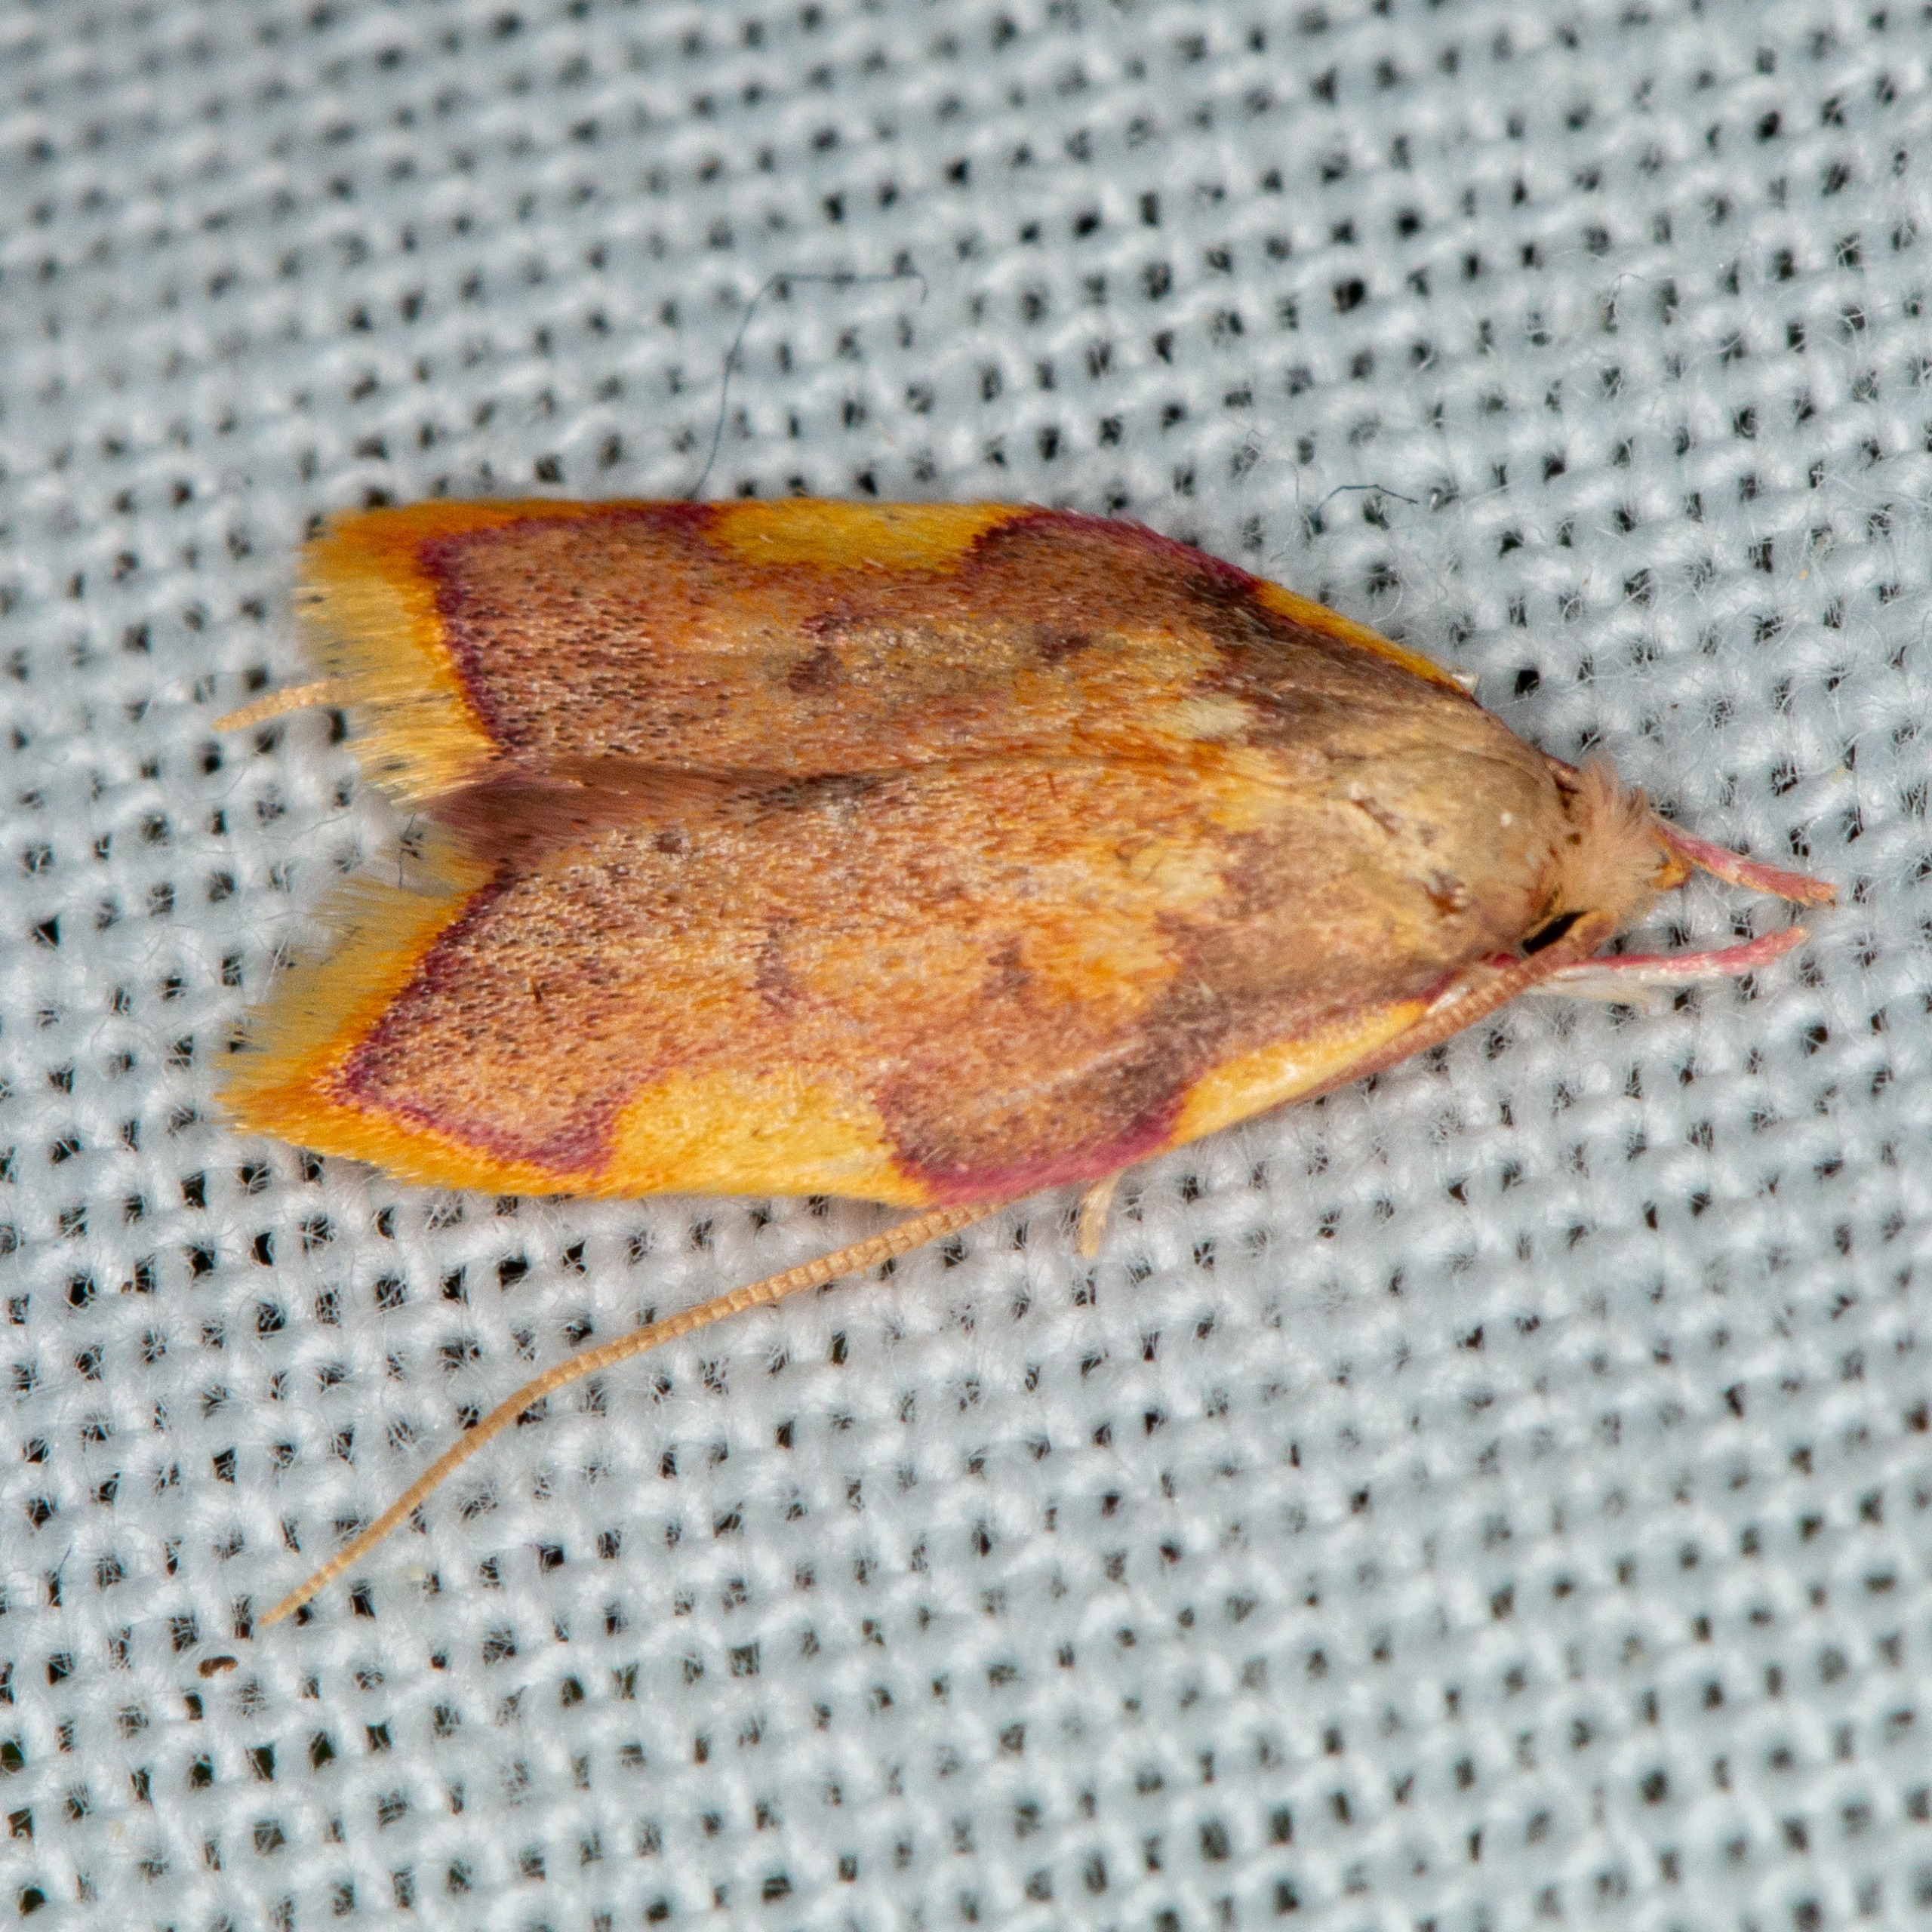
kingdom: Animalia
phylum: Arthropoda
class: Insecta
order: Lepidoptera
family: Peleopodidae
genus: Carcina
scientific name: Carcina quercana
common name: Egeprydvinge
